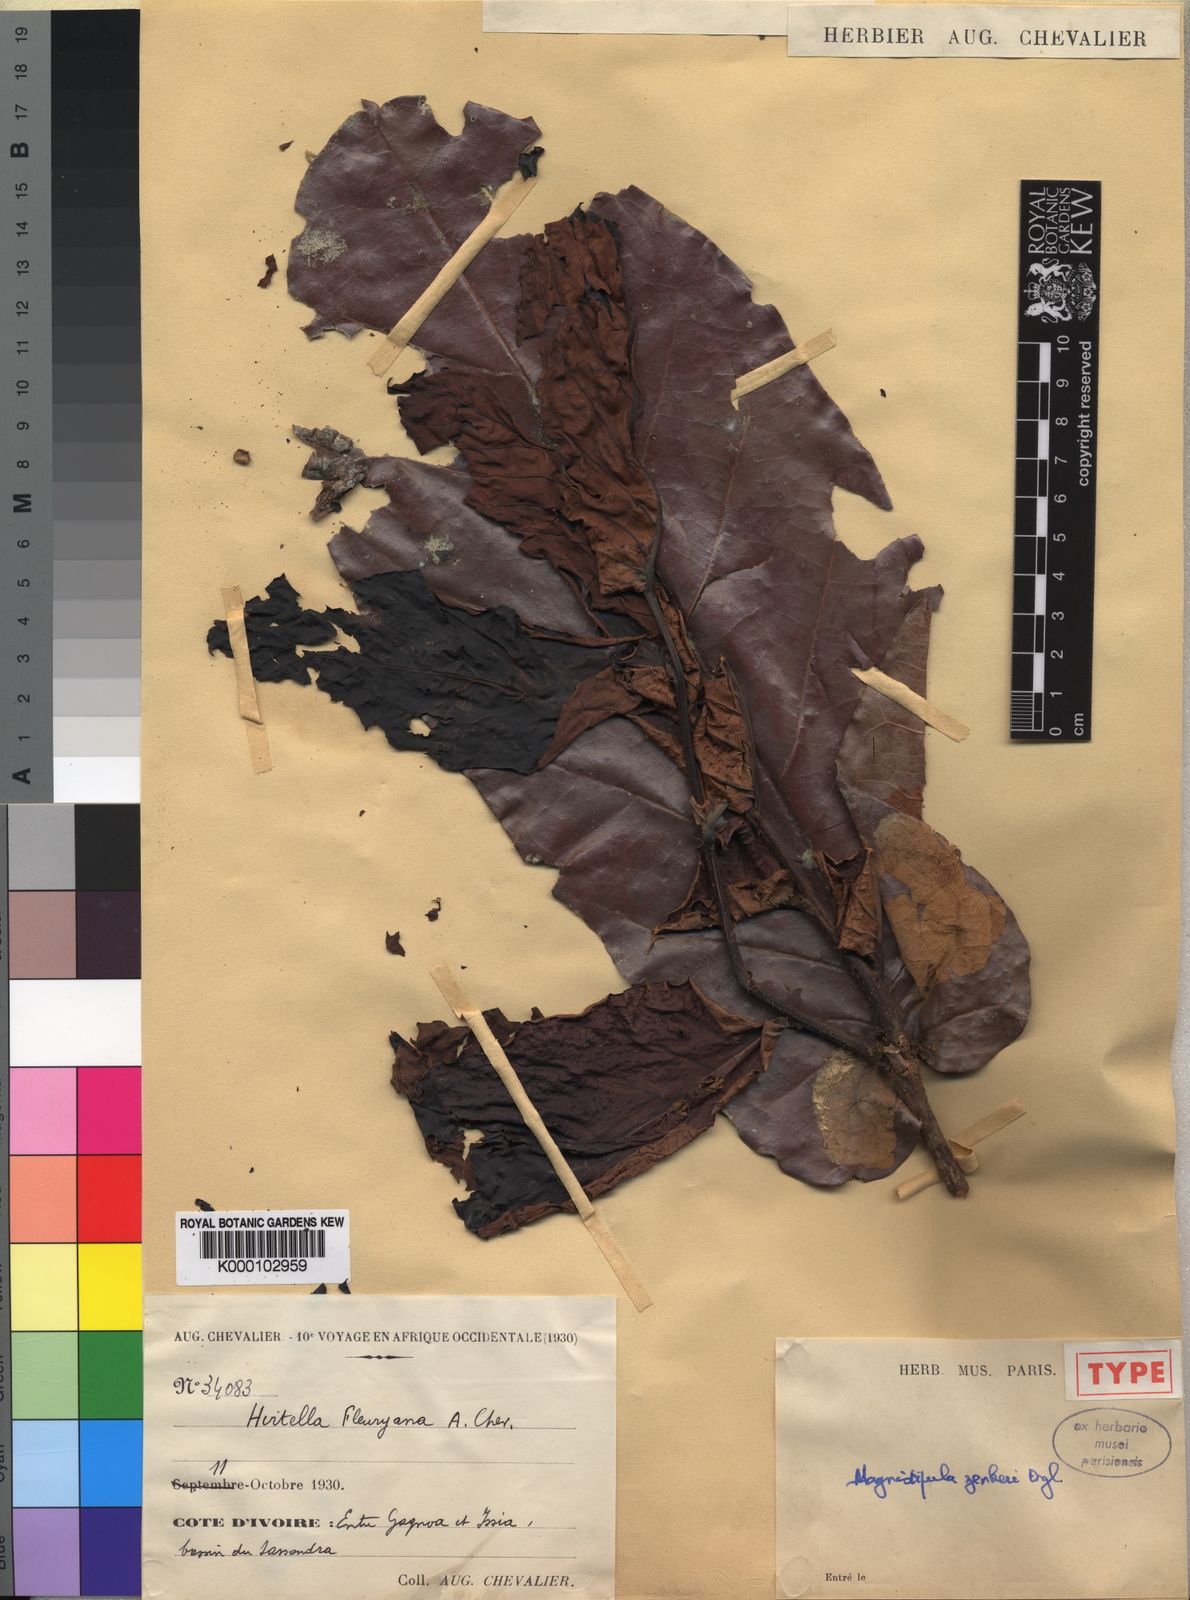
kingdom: Plantae
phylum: Tracheophyta
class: Magnoliopsida
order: Malpighiales
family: Chrysobalanaceae
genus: Magnistipula
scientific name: Magnistipula zenkeri
